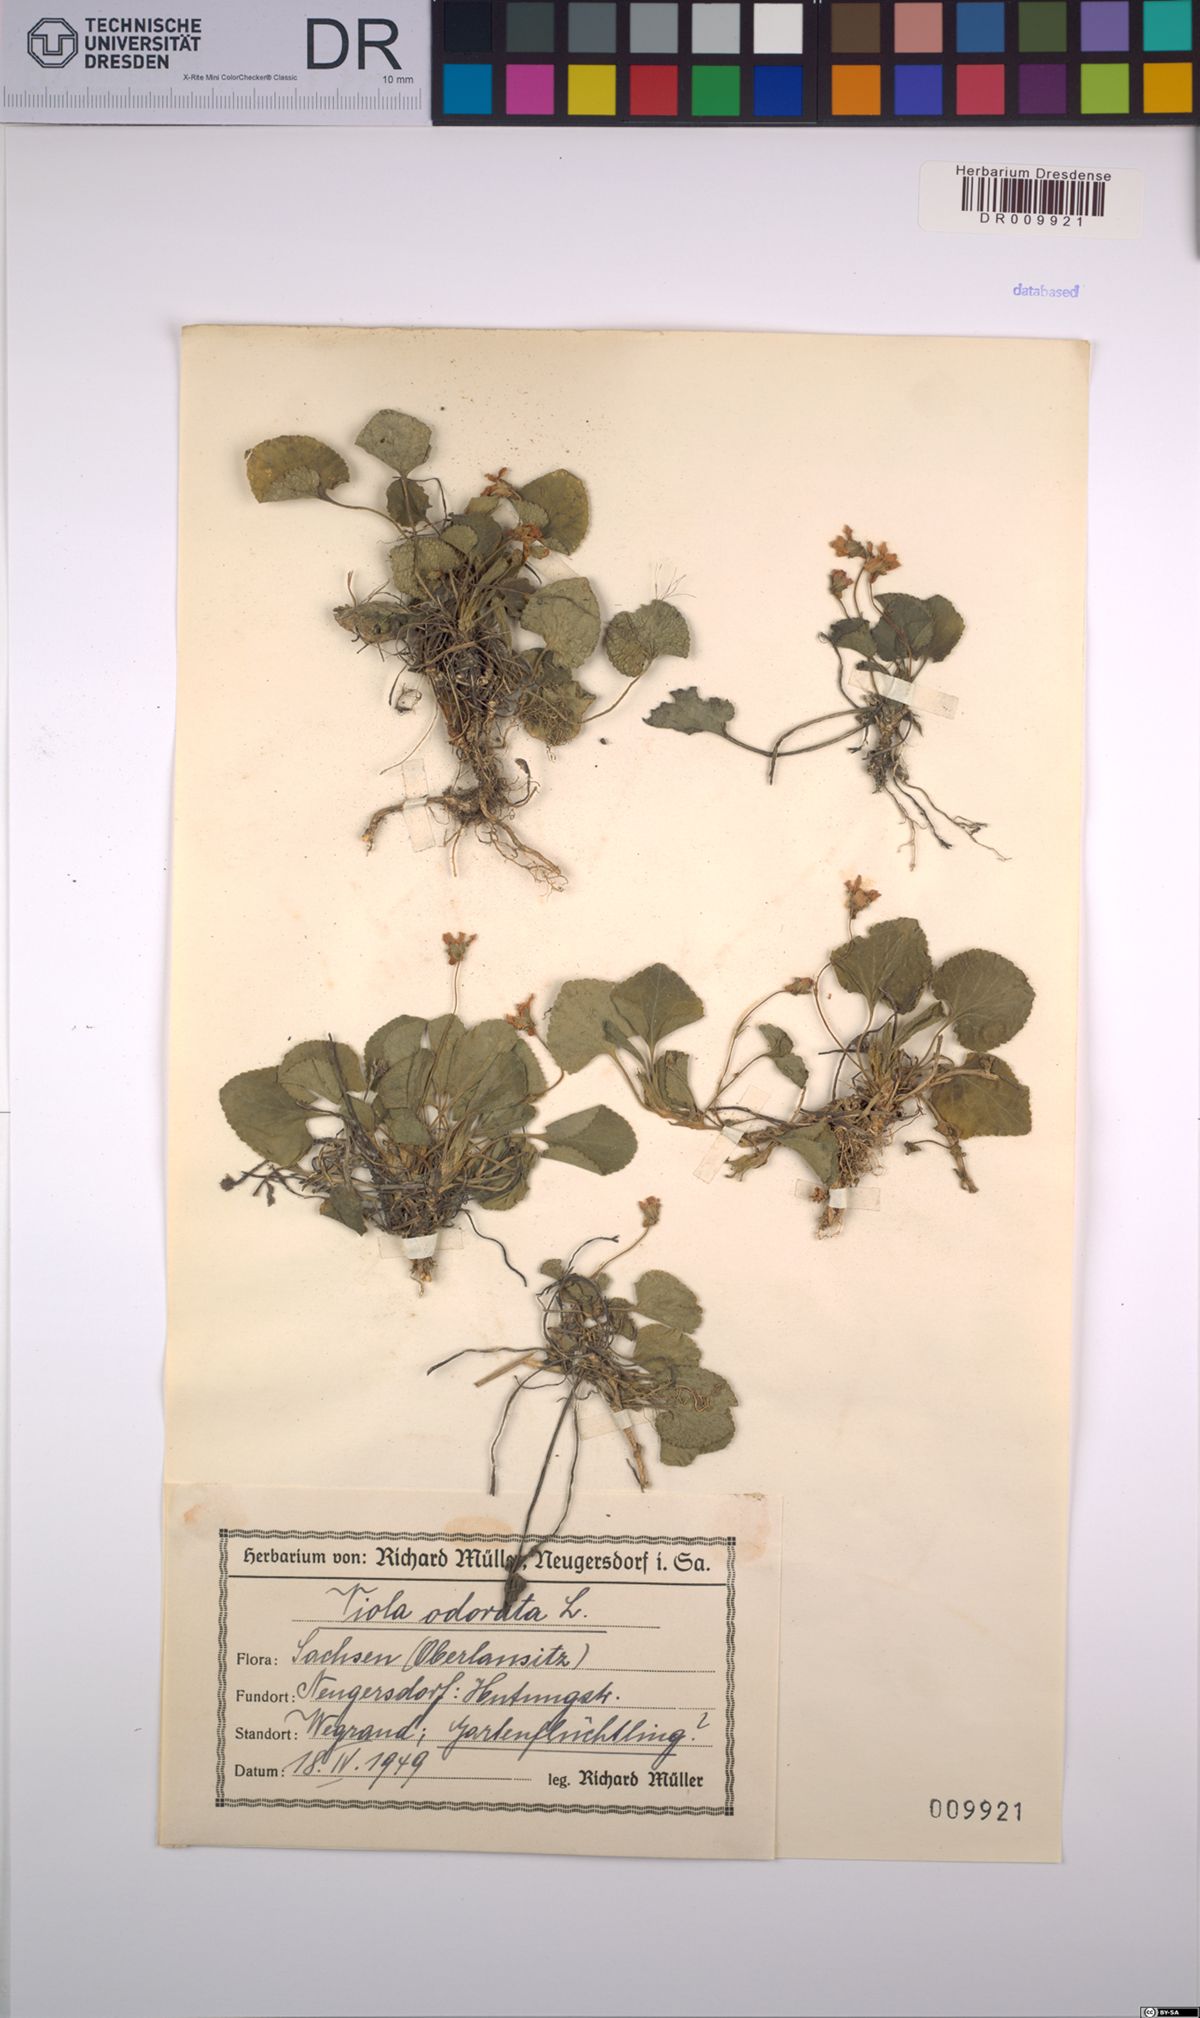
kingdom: Plantae
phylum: Tracheophyta
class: Magnoliopsida
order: Malpighiales
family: Violaceae
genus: Viola
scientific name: Viola odorata
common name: Sweet violet
